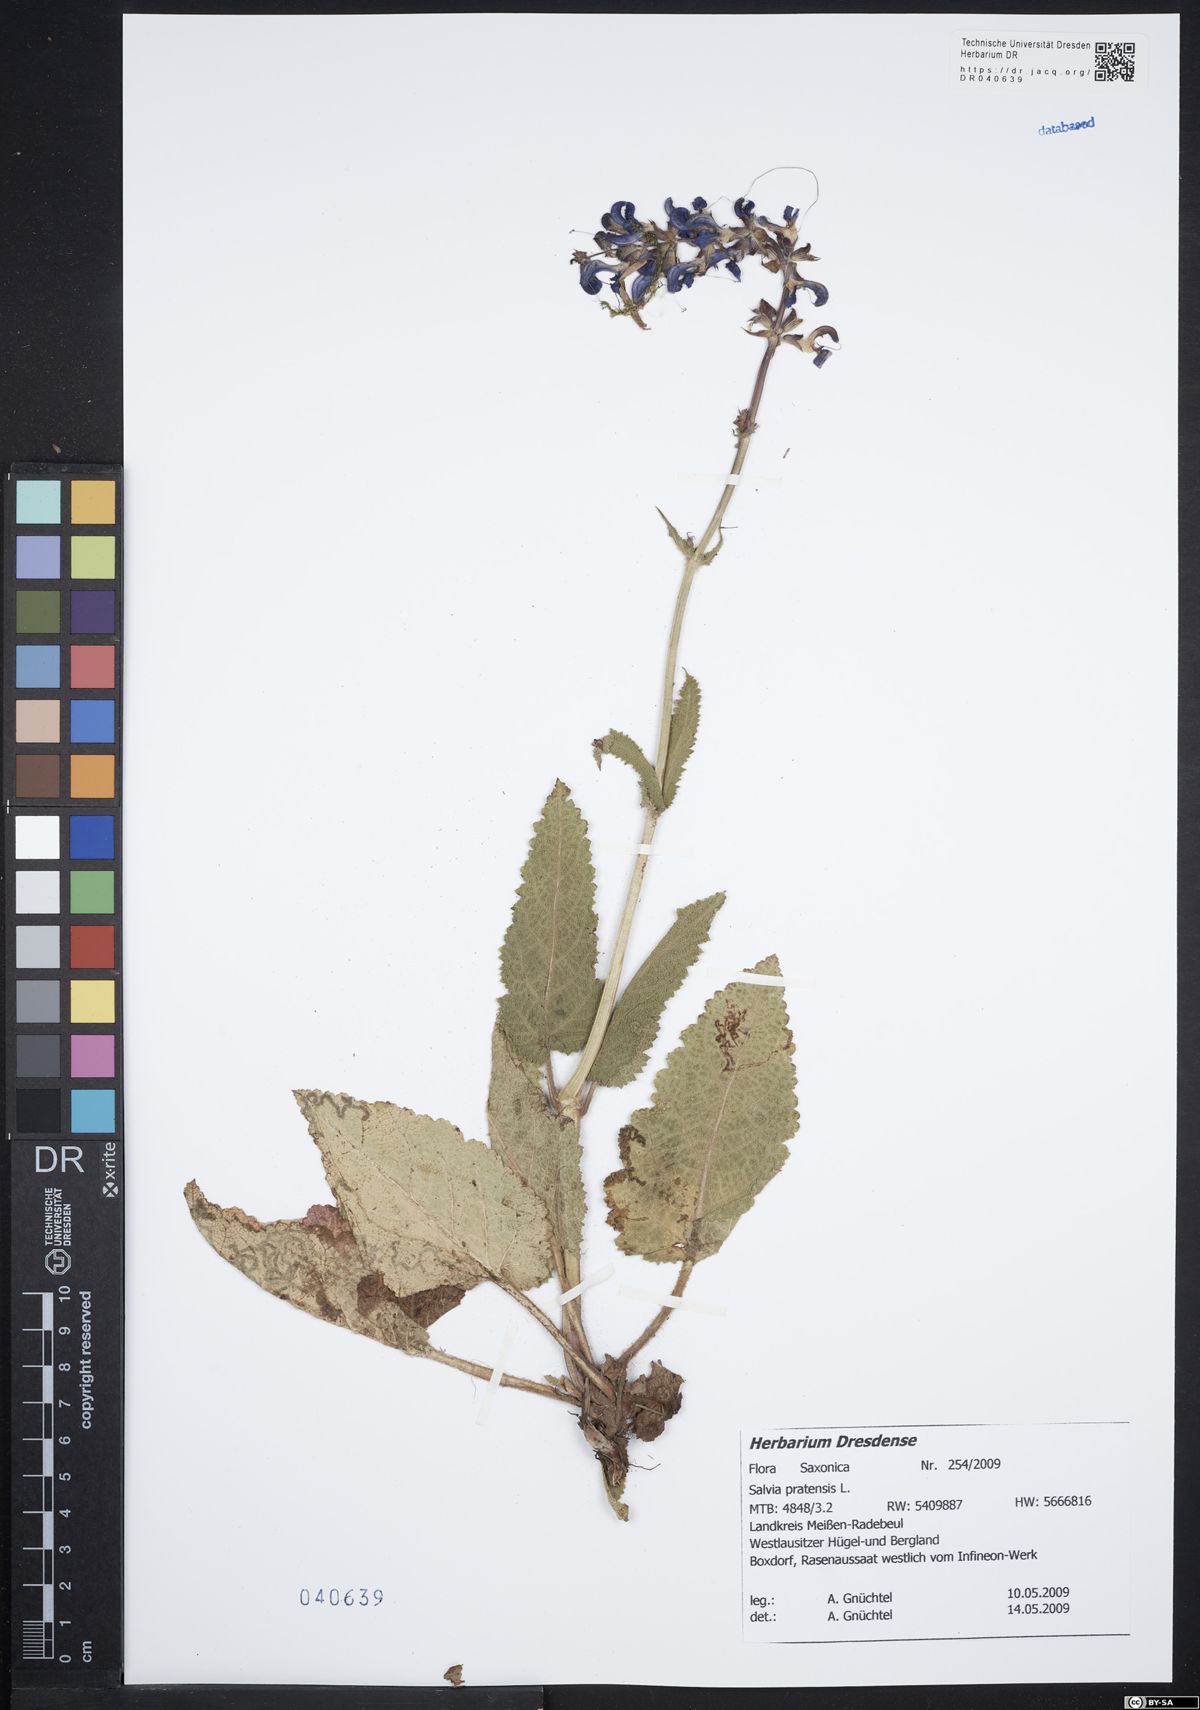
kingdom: Plantae
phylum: Tracheophyta
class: Magnoliopsida
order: Lamiales
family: Lamiaceae
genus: Salvia
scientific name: Salvia pratensis
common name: Meadow sage
